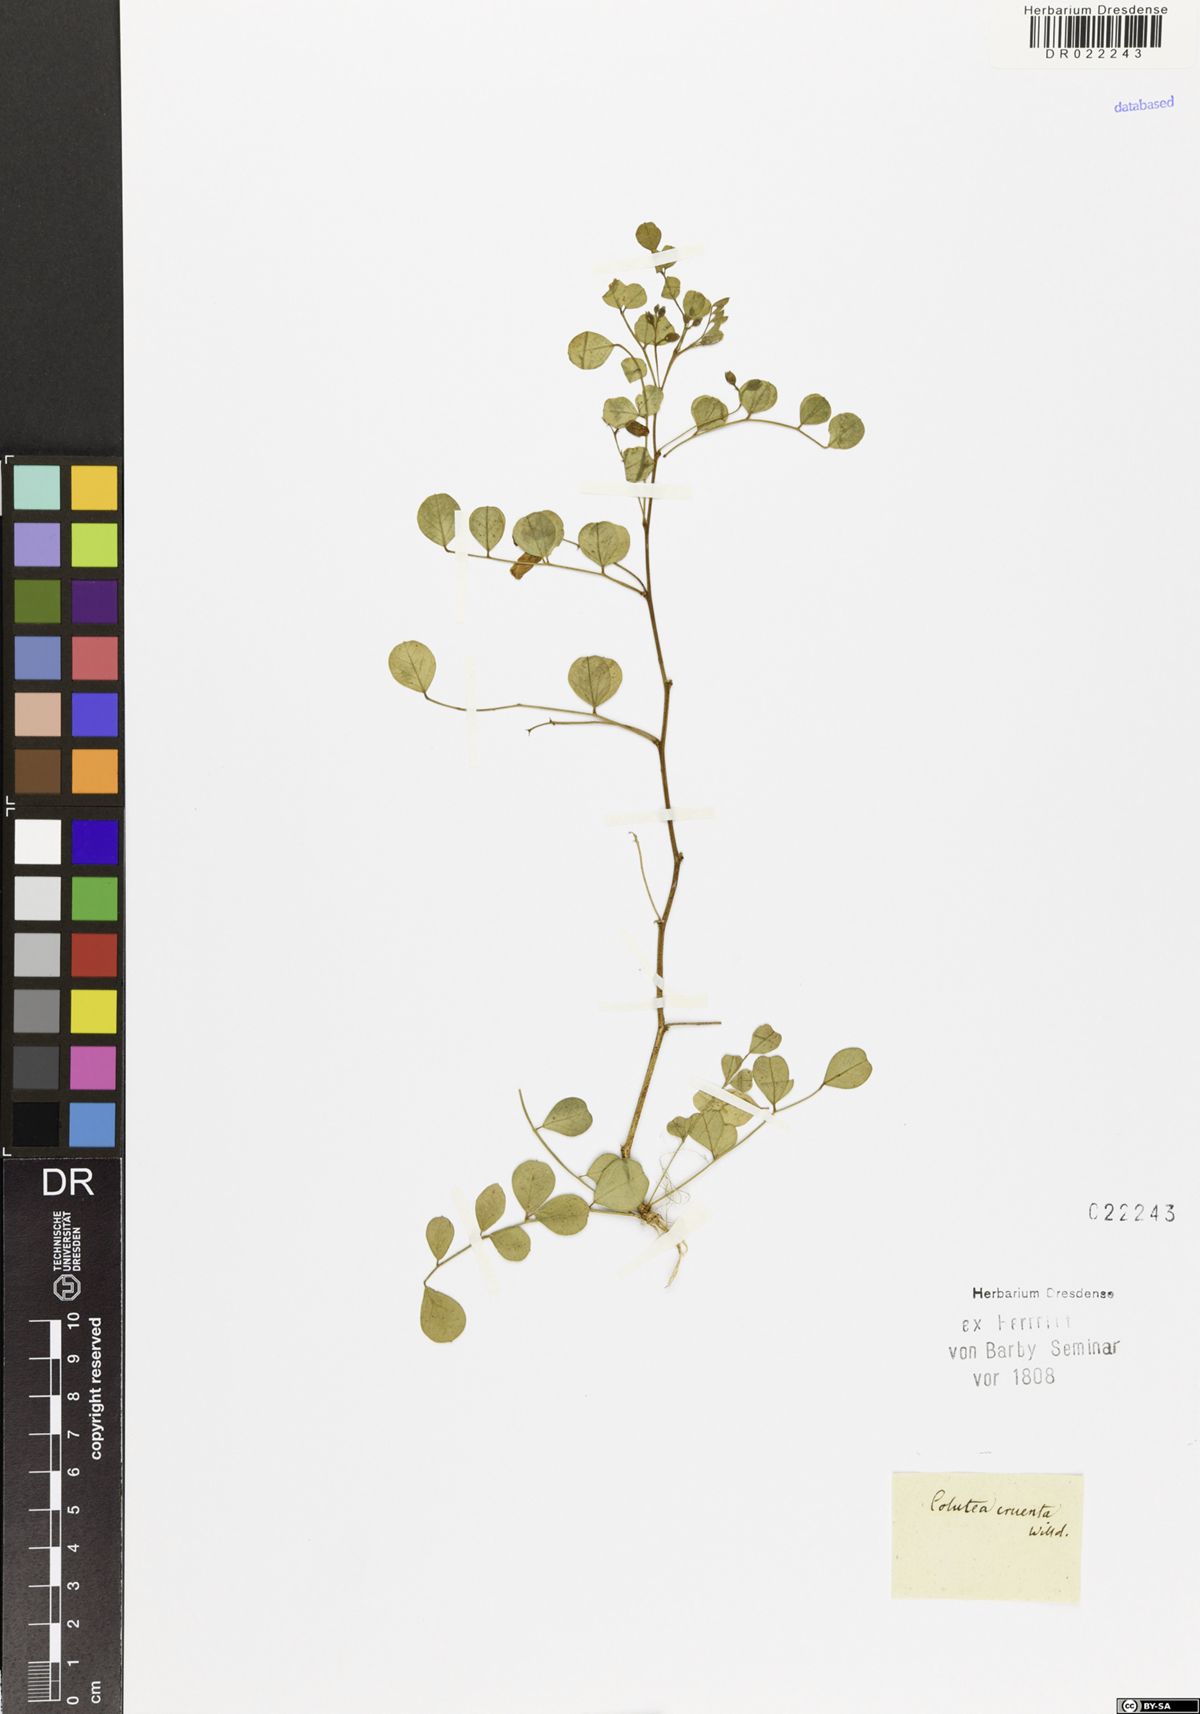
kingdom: Plantae
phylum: Tracheophyta
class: Magnoliopsida
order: Fabales
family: Fabaceae
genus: Colutea
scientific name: Colutea orientalis
